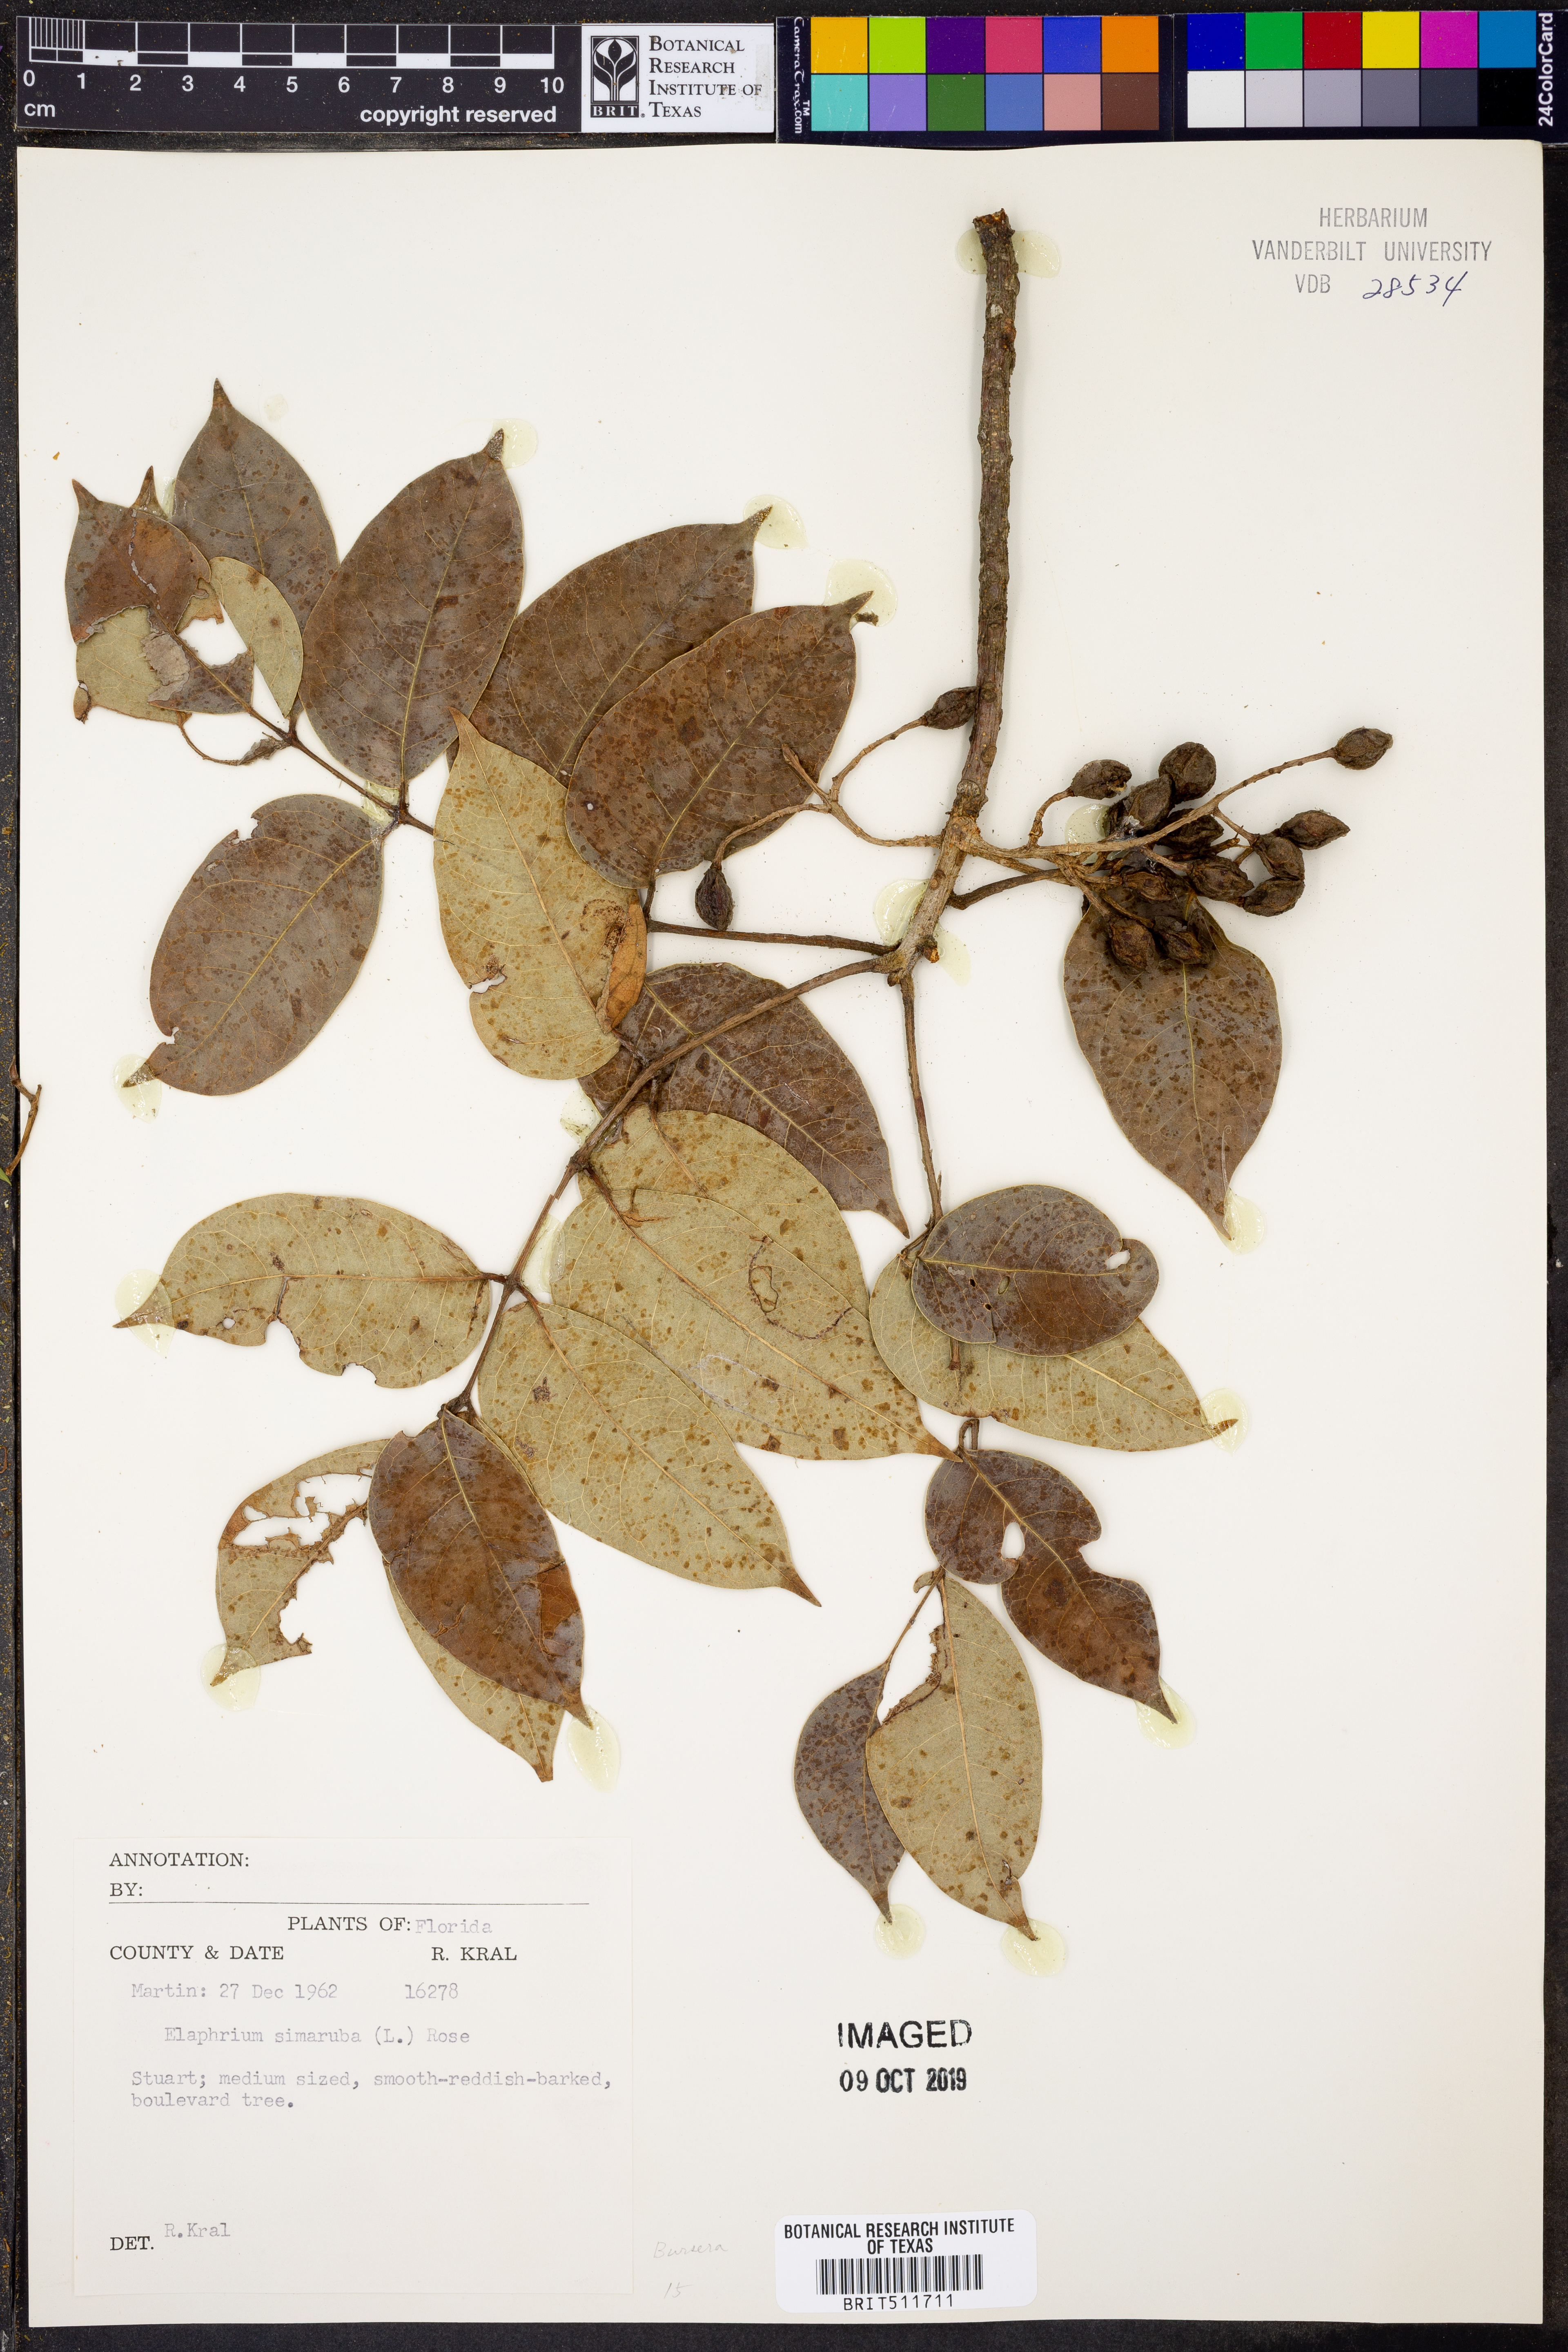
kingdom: Plantae
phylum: Tracheophyta
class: Magnoliopsida
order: Sapindales
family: Burseraceae
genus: Bursera
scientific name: Bursera simaruba
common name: Turpentine tree
